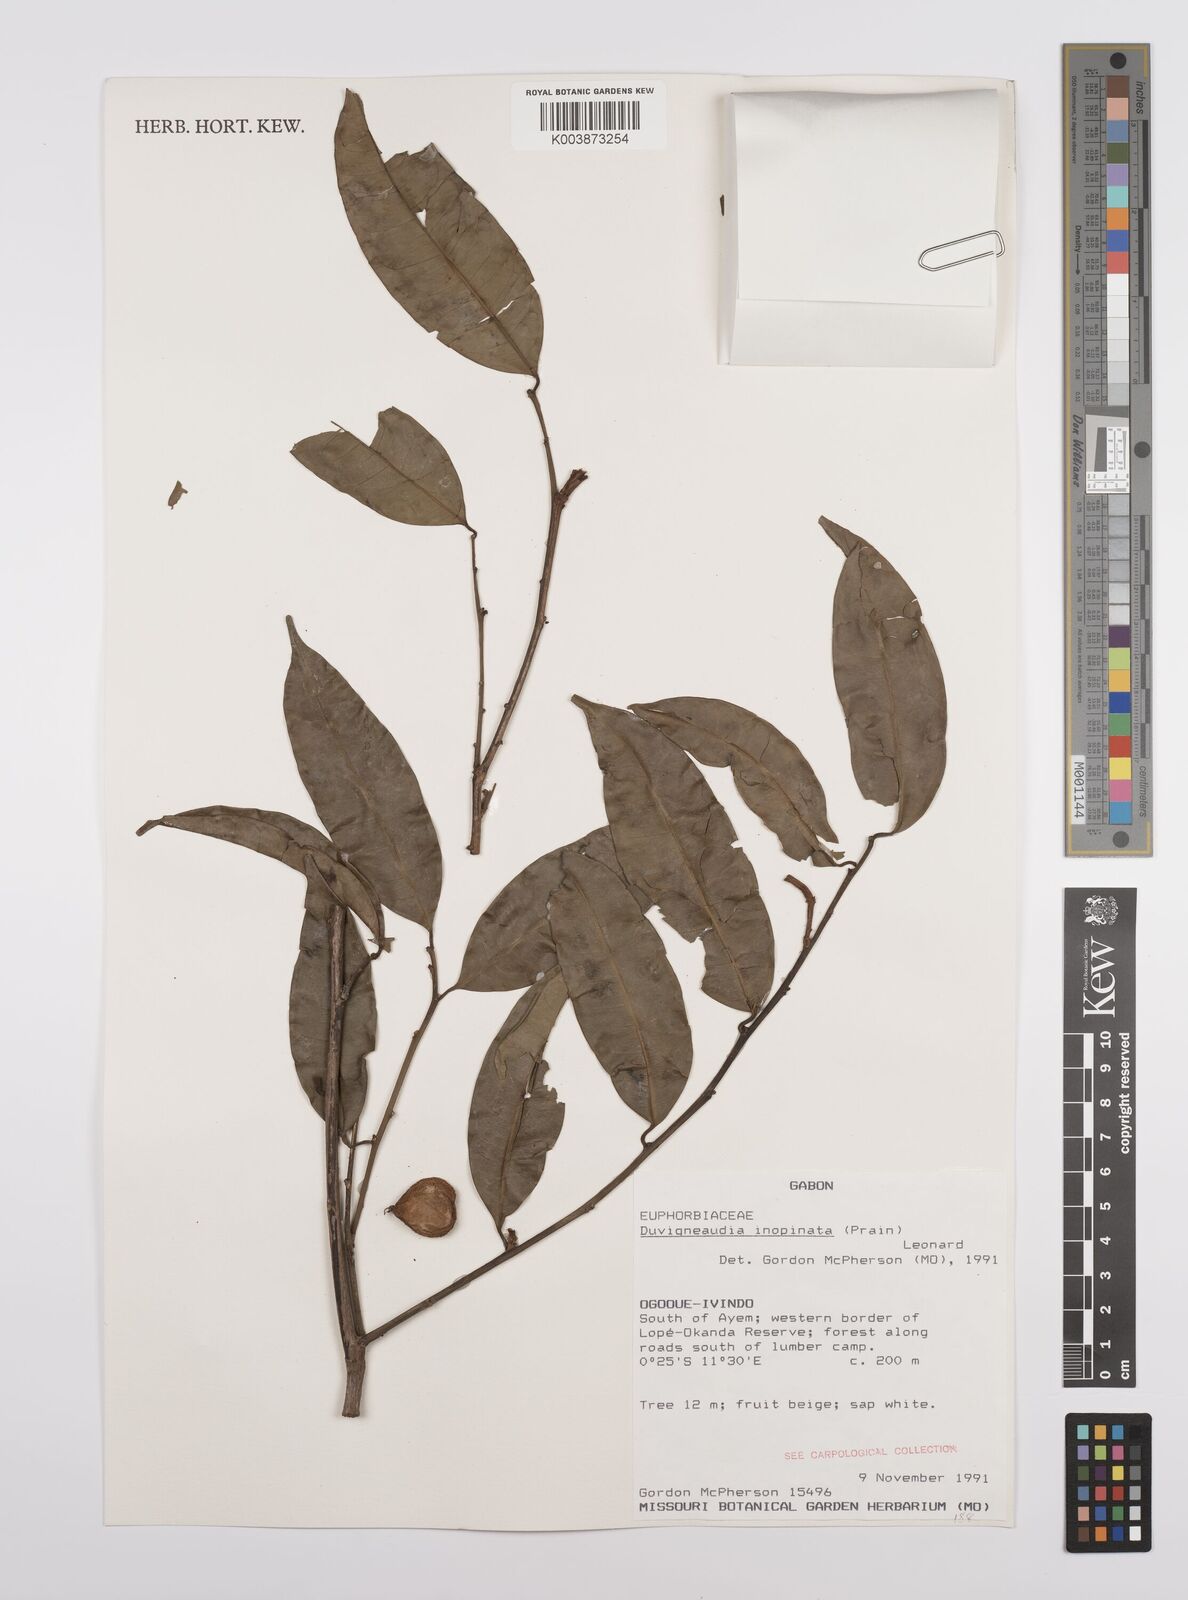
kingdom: Plantae
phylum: Tracheophyta
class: Magnoliopsida
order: Malpighiales
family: Euphorbiaceae
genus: Gymnanthes
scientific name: Gymnanthes inopinata
